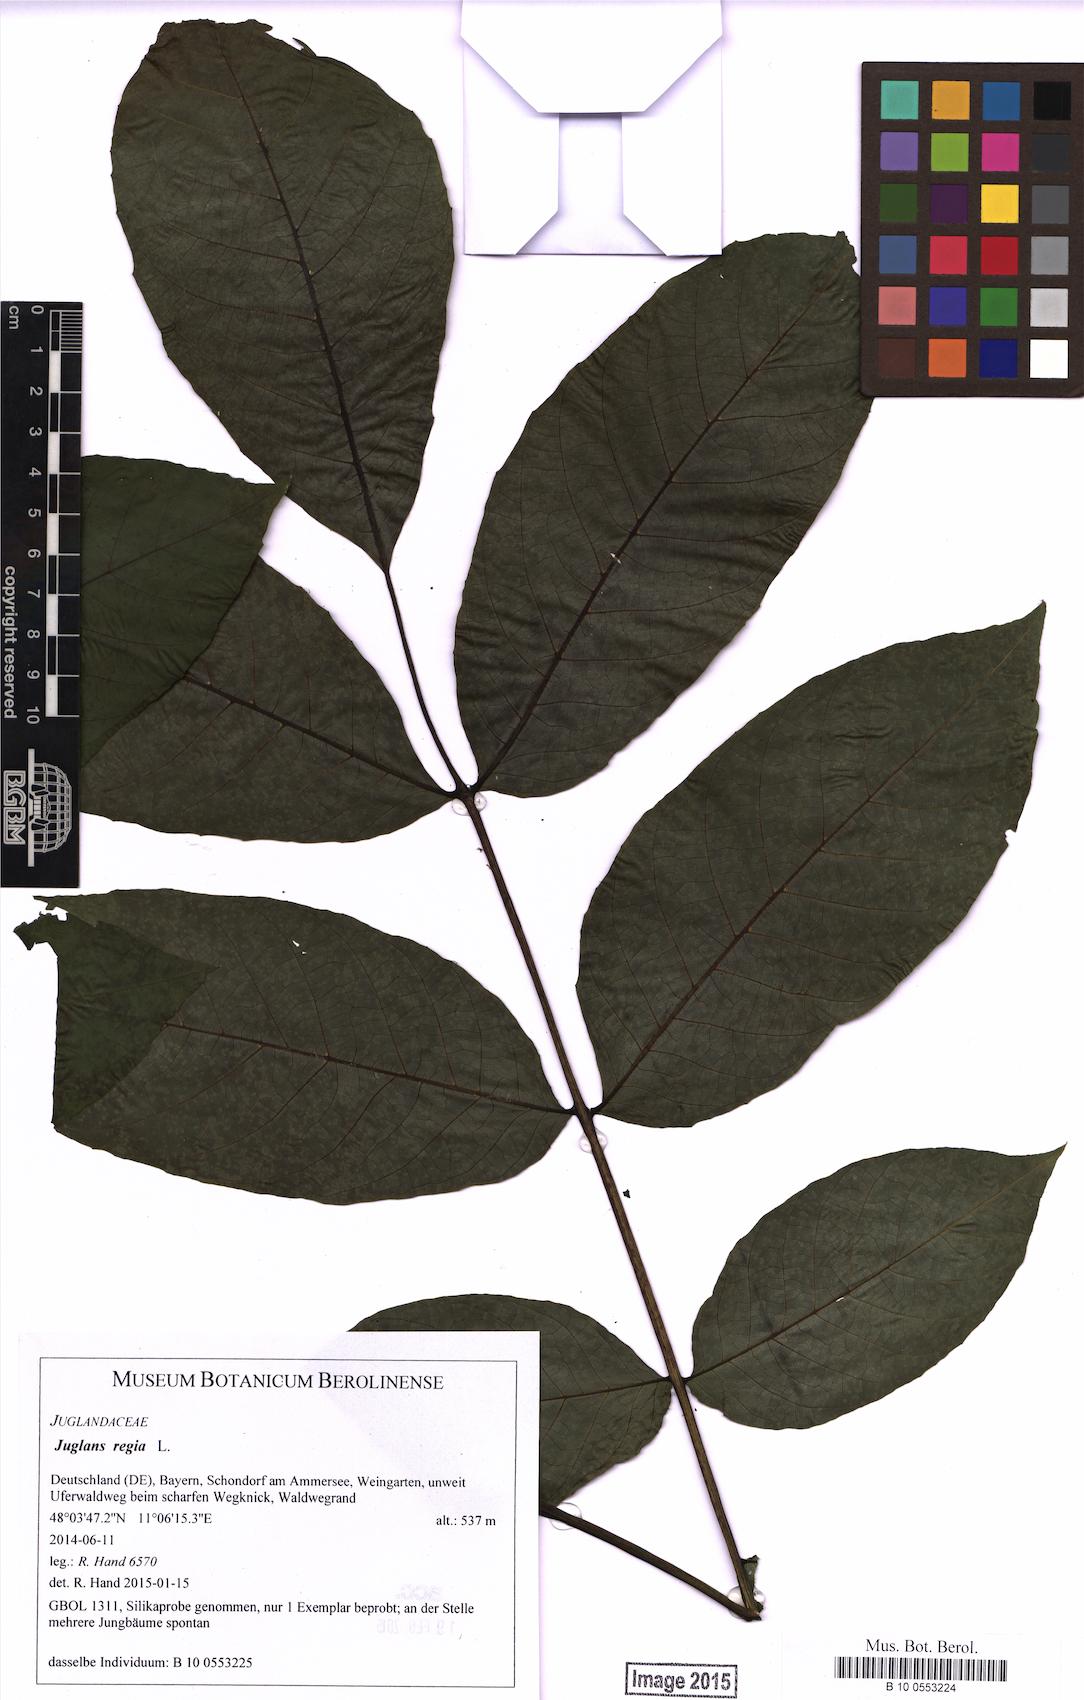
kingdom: Plantae
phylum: Tracheophyta
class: Magnoliopsida
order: Fagales
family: Juglandaceae
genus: Juglans
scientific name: Juglans regia
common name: Walnut
